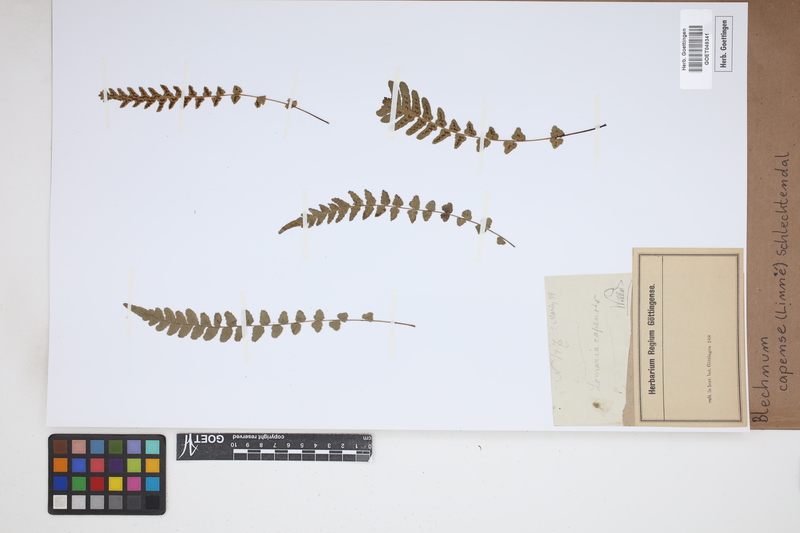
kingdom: Plantae
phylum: Tracheophyta
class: Polypodiopsida
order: Polypodiales
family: Blechnaceae
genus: Parablechnum
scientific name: Parablechnum capense
